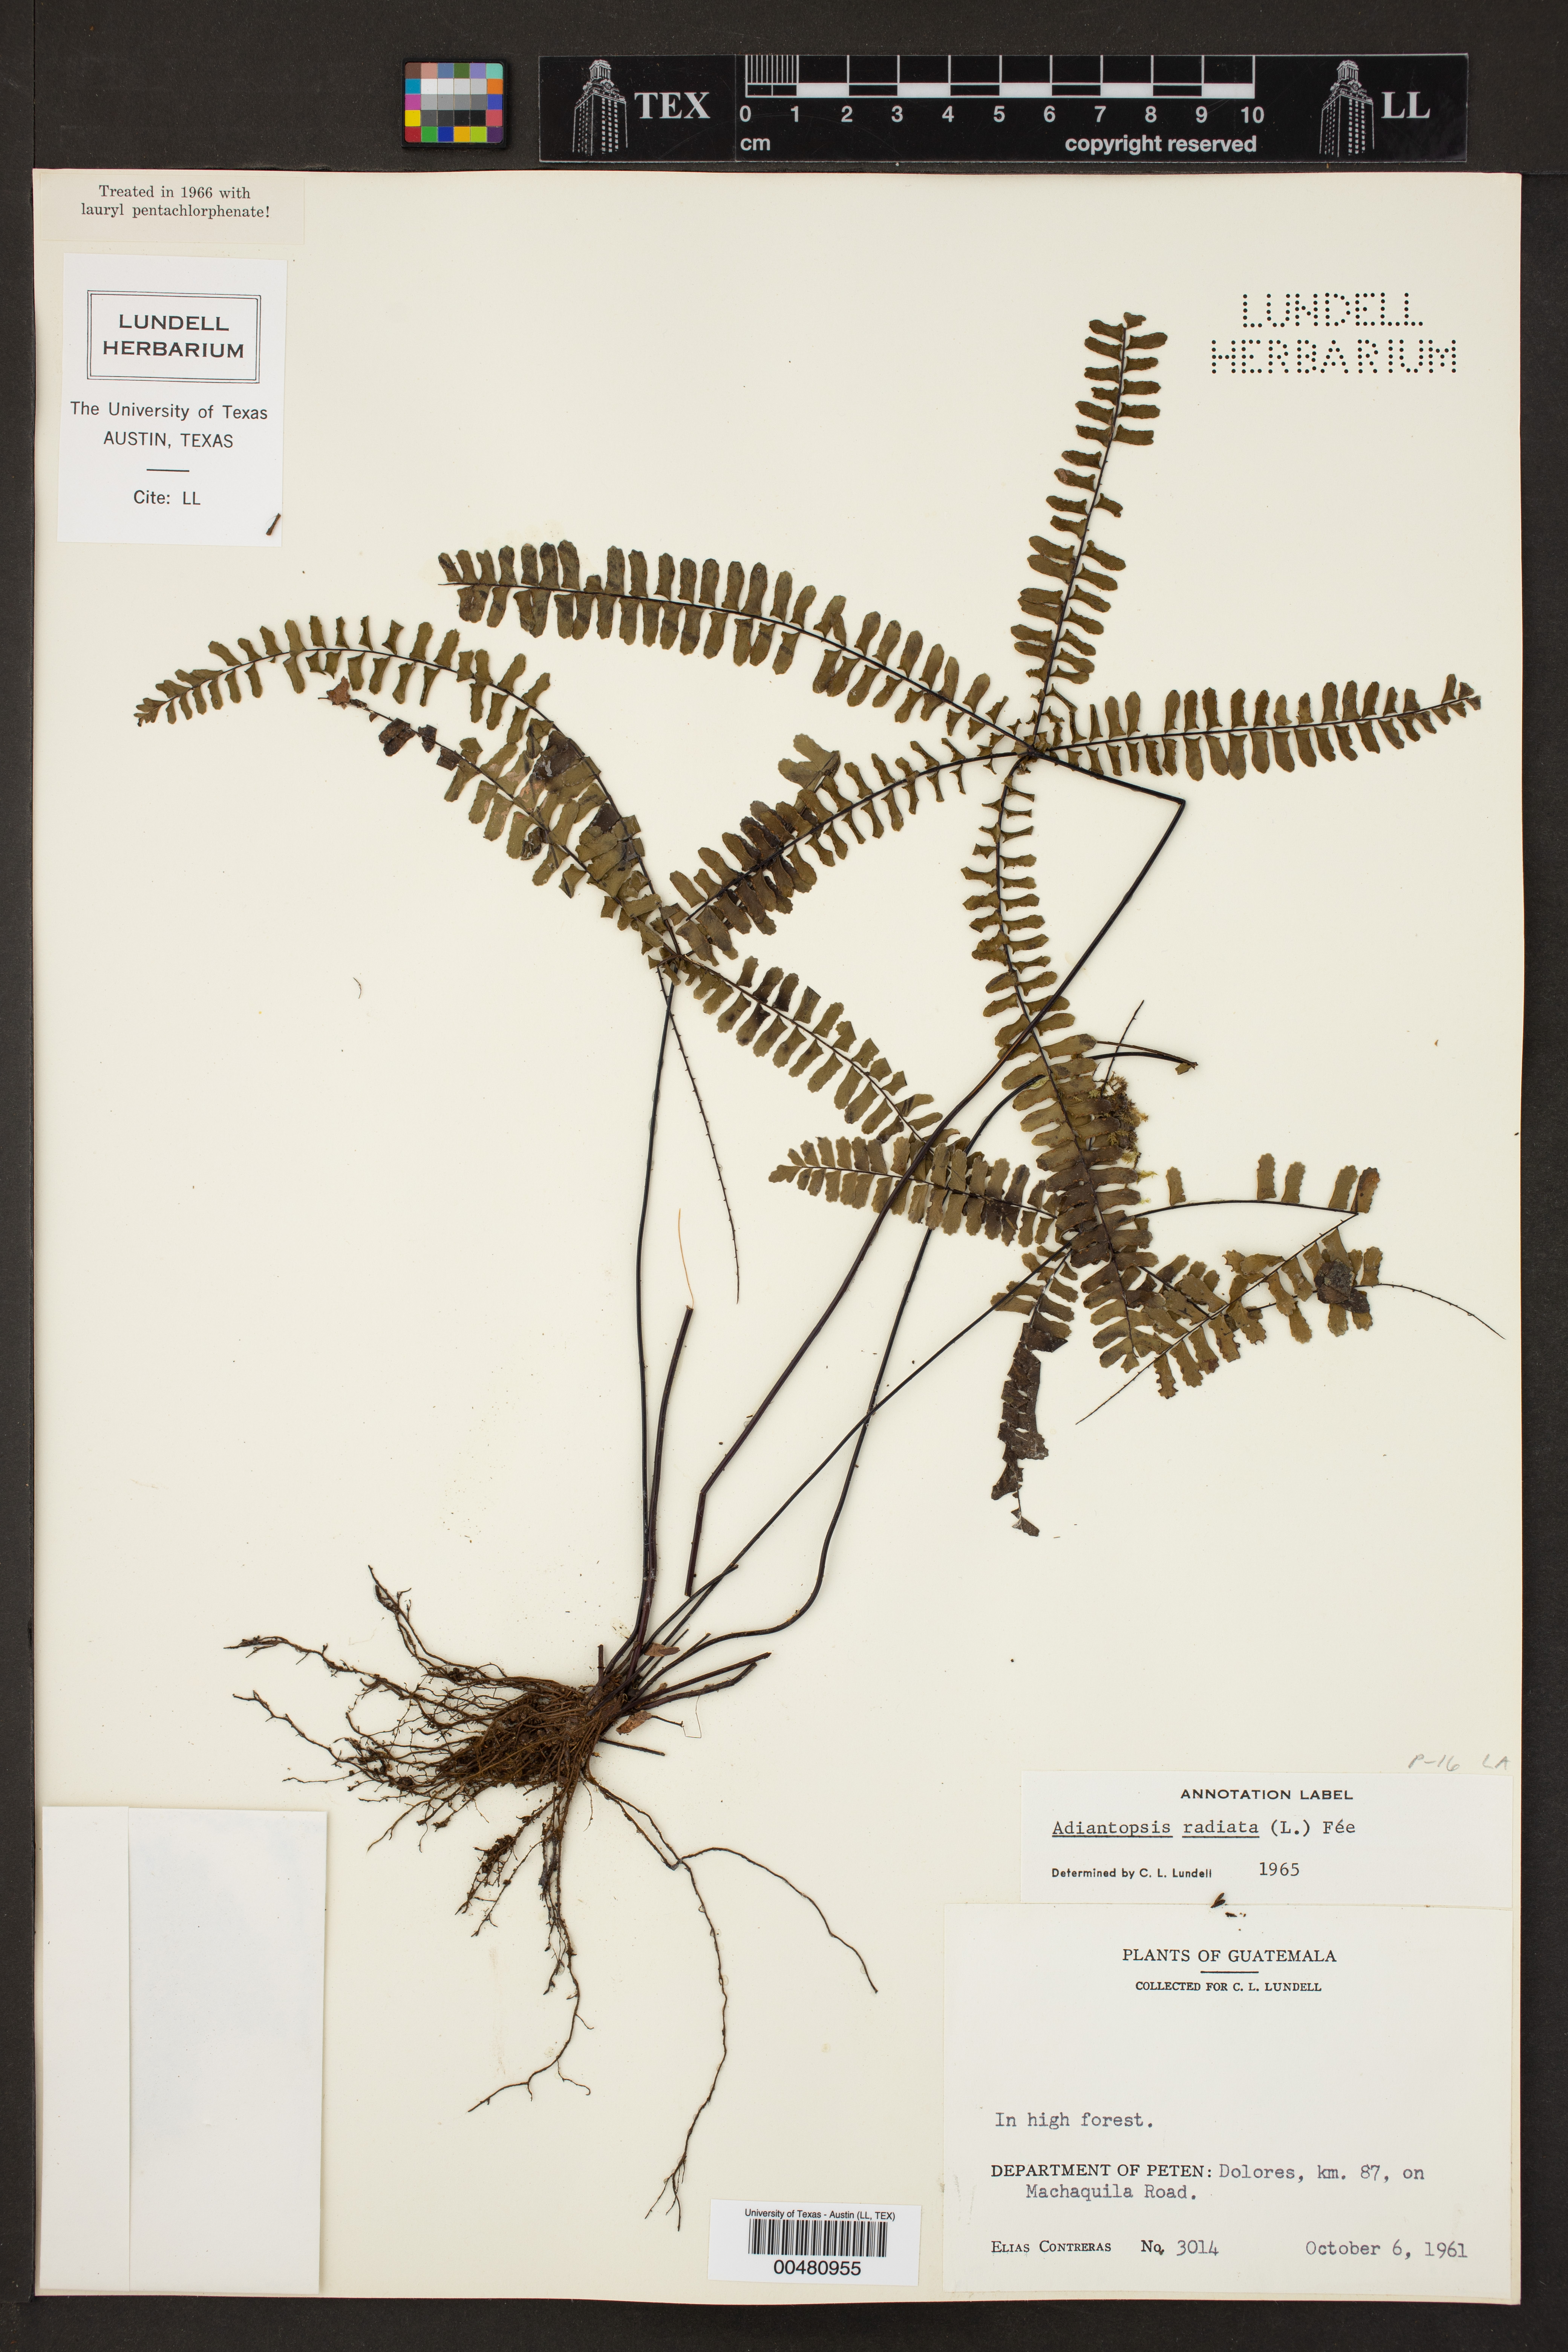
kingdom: Plantae
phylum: Tracheophyta
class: Polypodiopsida
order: Polypodiales
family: Pteridaceae
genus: Adiantopsis
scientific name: Adiantopsis radiata
